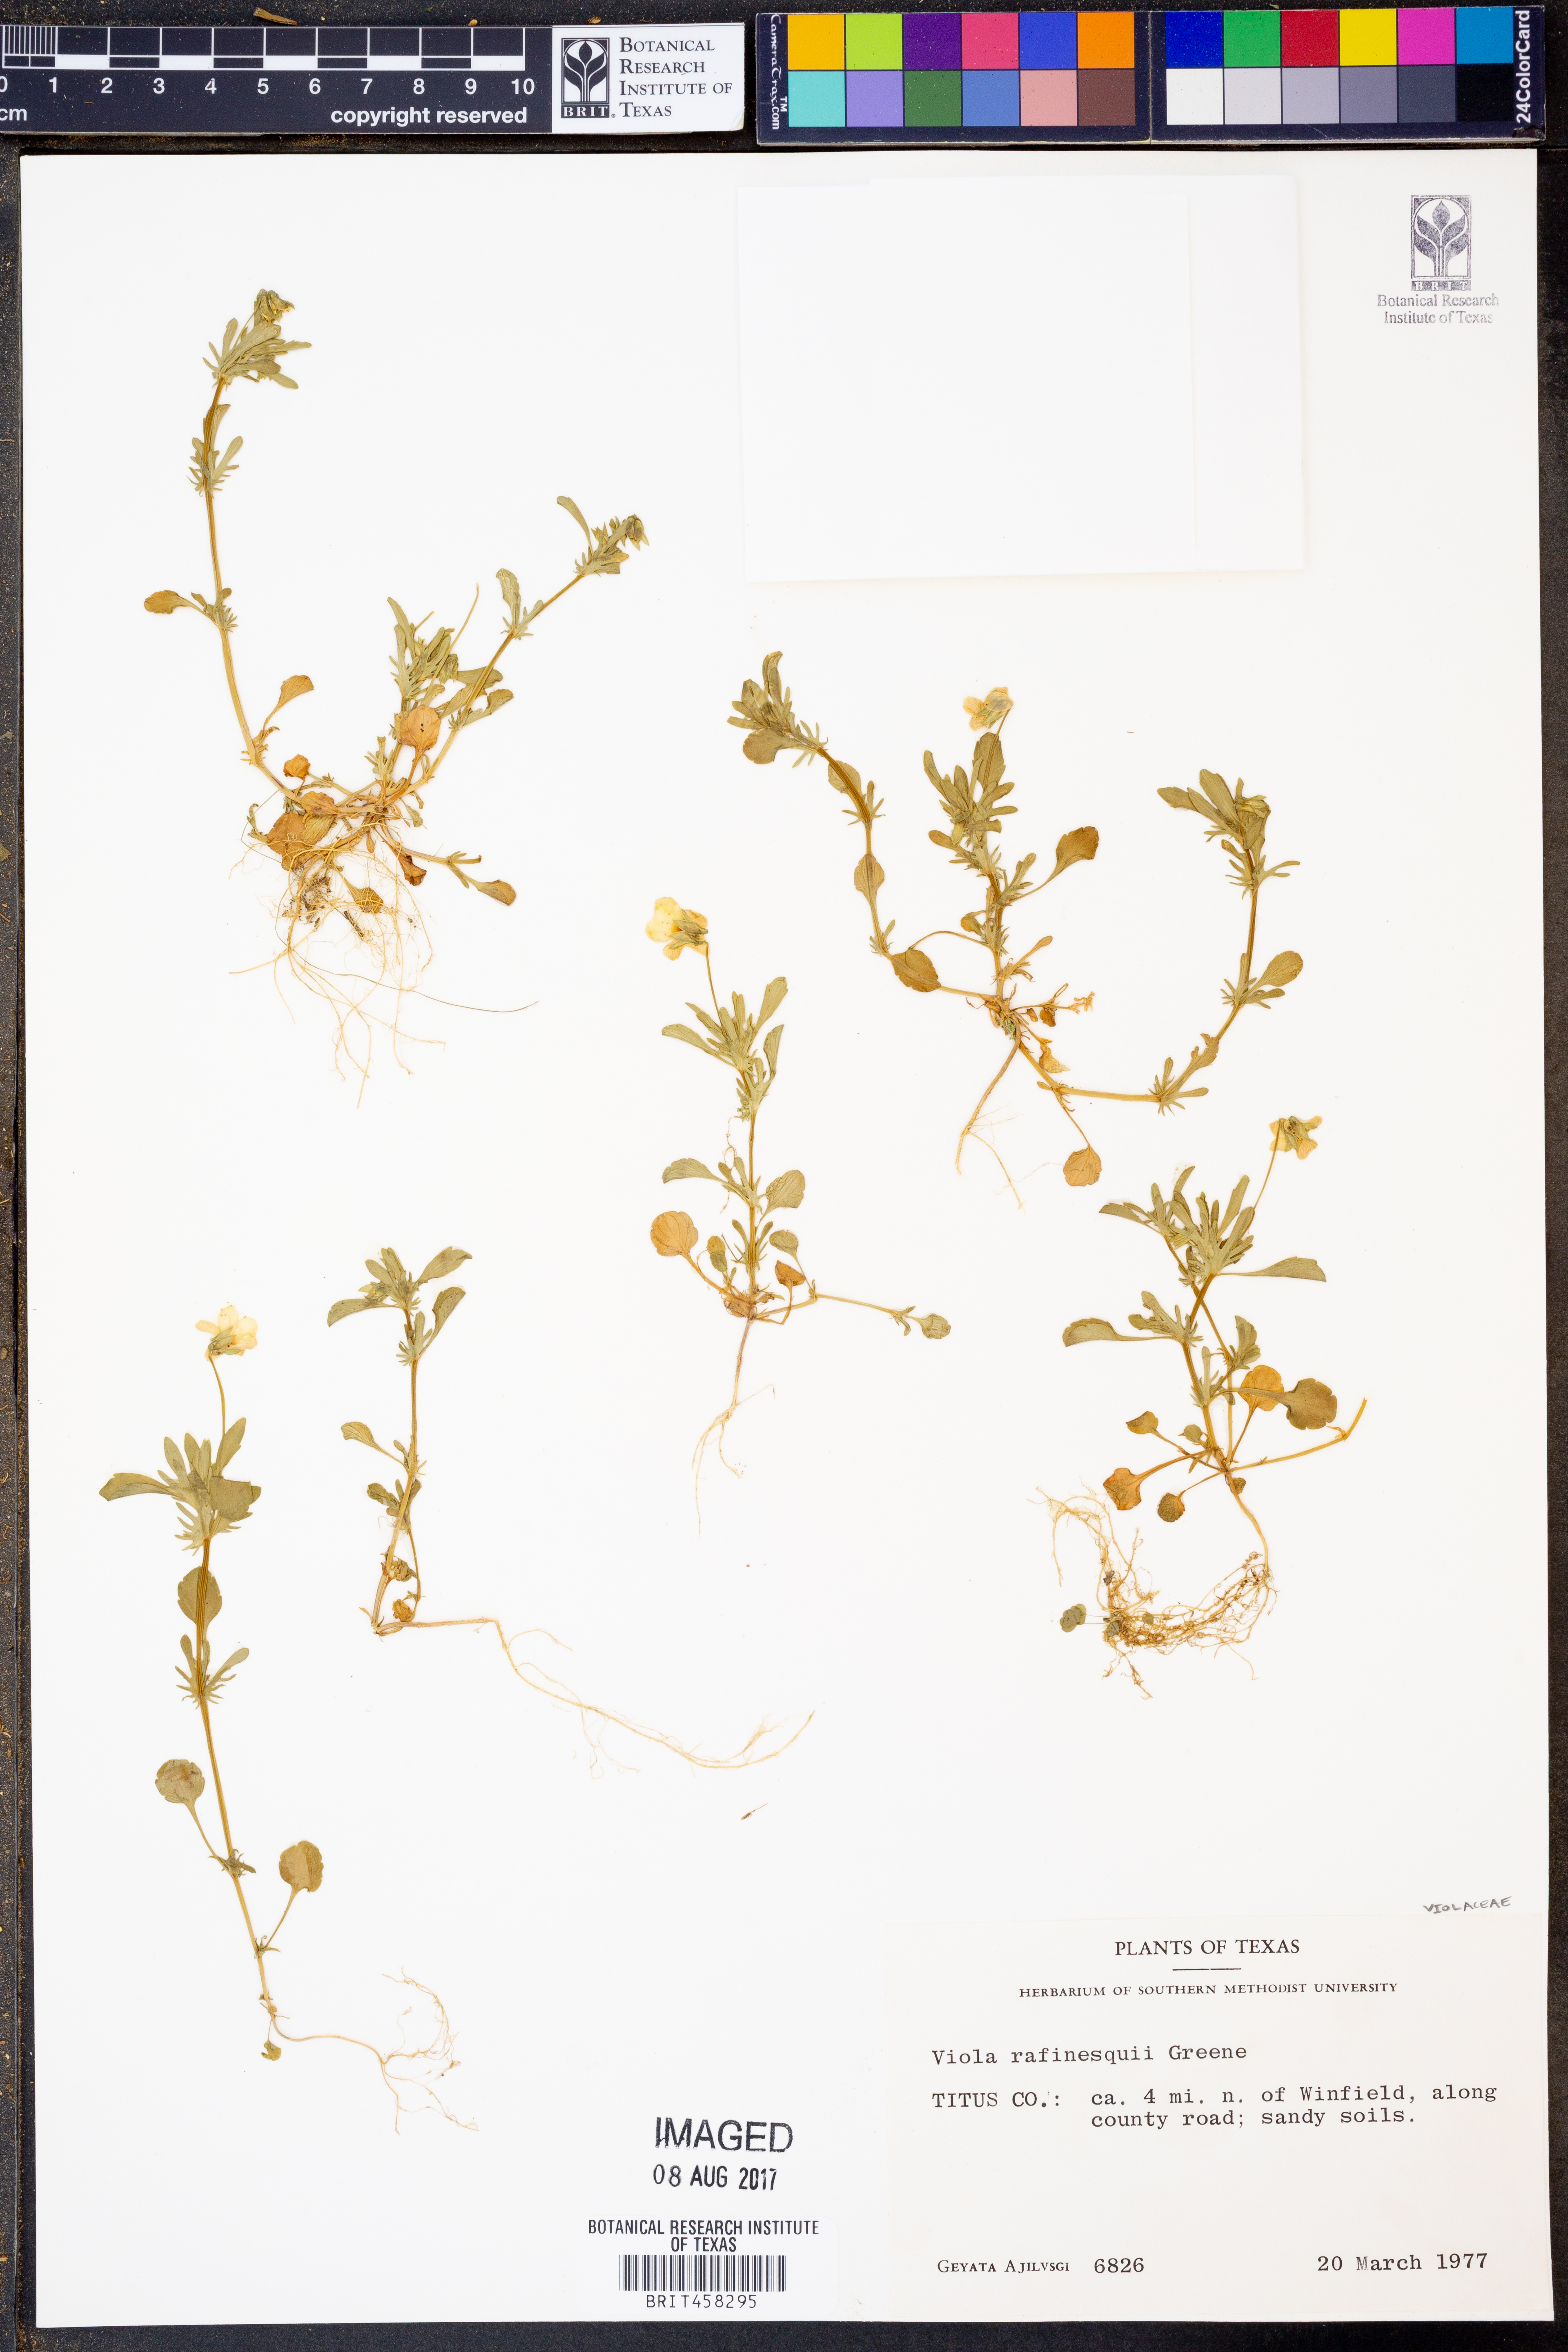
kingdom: Plantae
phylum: Tracheophyta
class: Magnoliopsida
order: Malpighiales
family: Violaceae
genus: Viola
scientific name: Viola rafinesquei
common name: American field pansy
